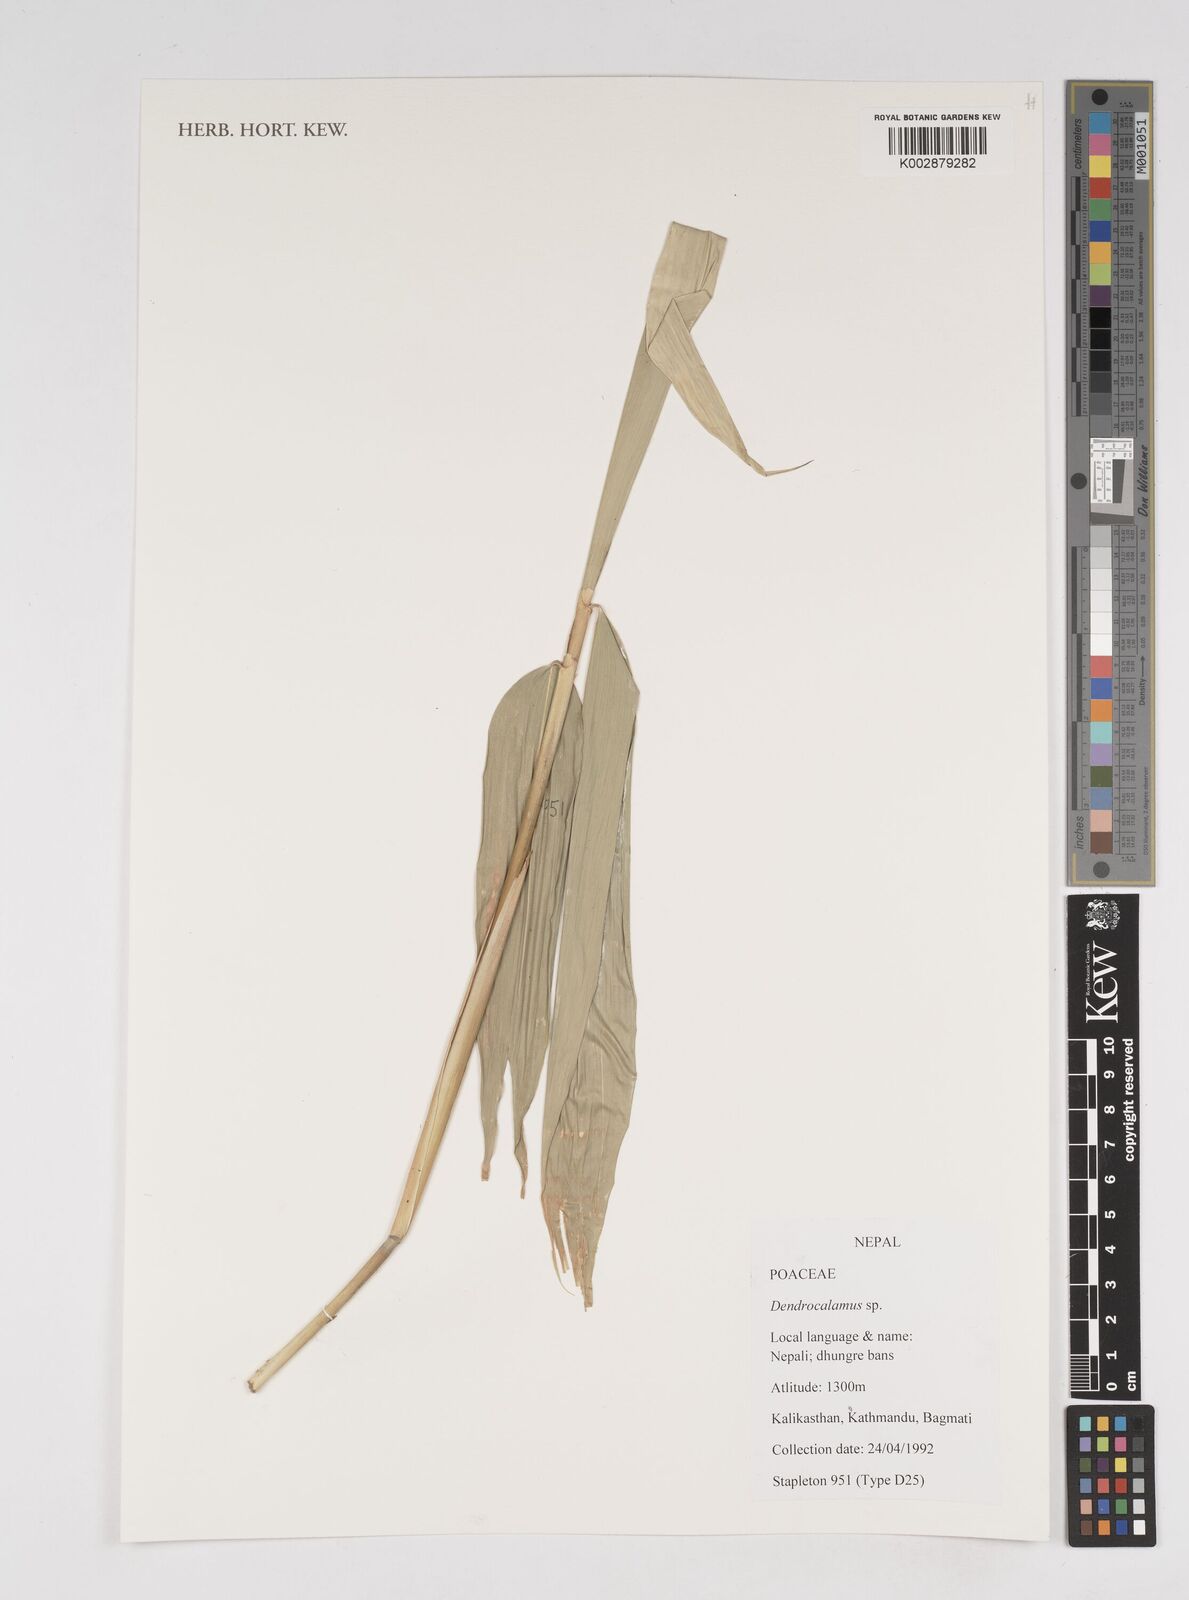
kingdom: Plantae
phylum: Tracheophyta
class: Liliopsida
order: Poales
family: Poaceae
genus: Dendrocalamus
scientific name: Dendrocalamus
